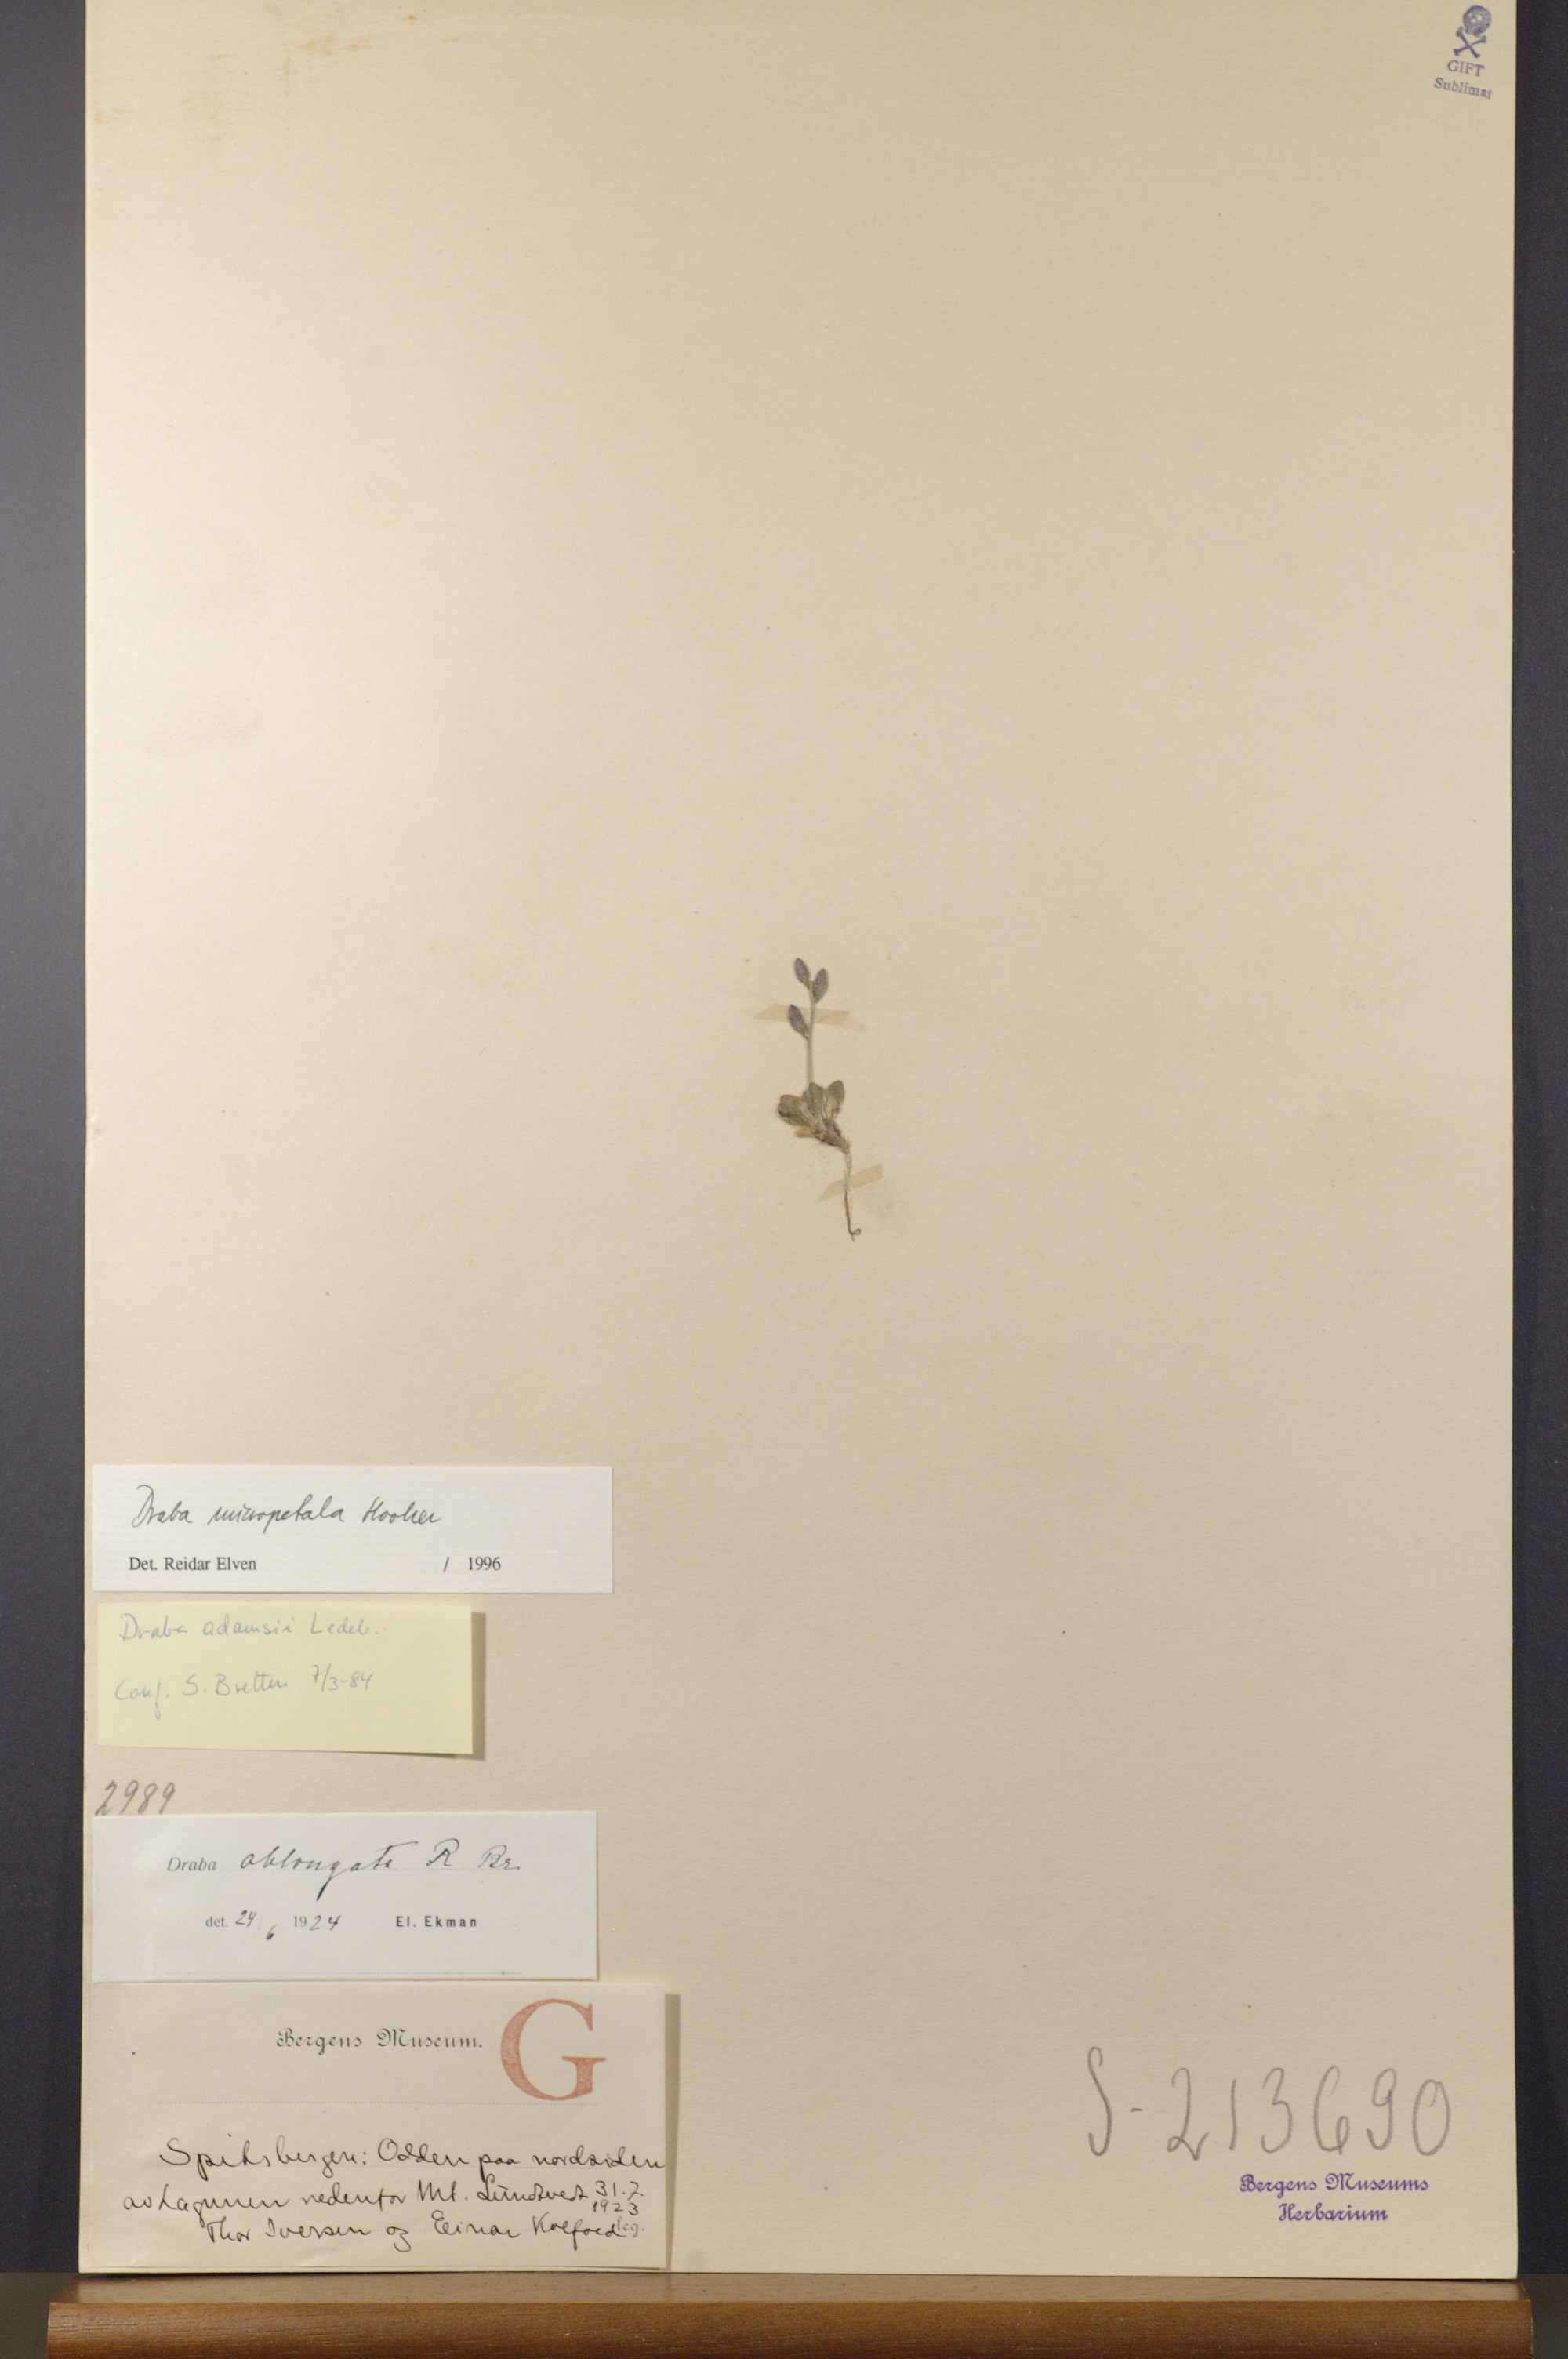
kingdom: Plantae
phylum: Tracheophyta
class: Magnoliopsida
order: Brassicales
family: Brassicaceae
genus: Draba
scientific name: Draba micropetala
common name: Small-flowered draba
